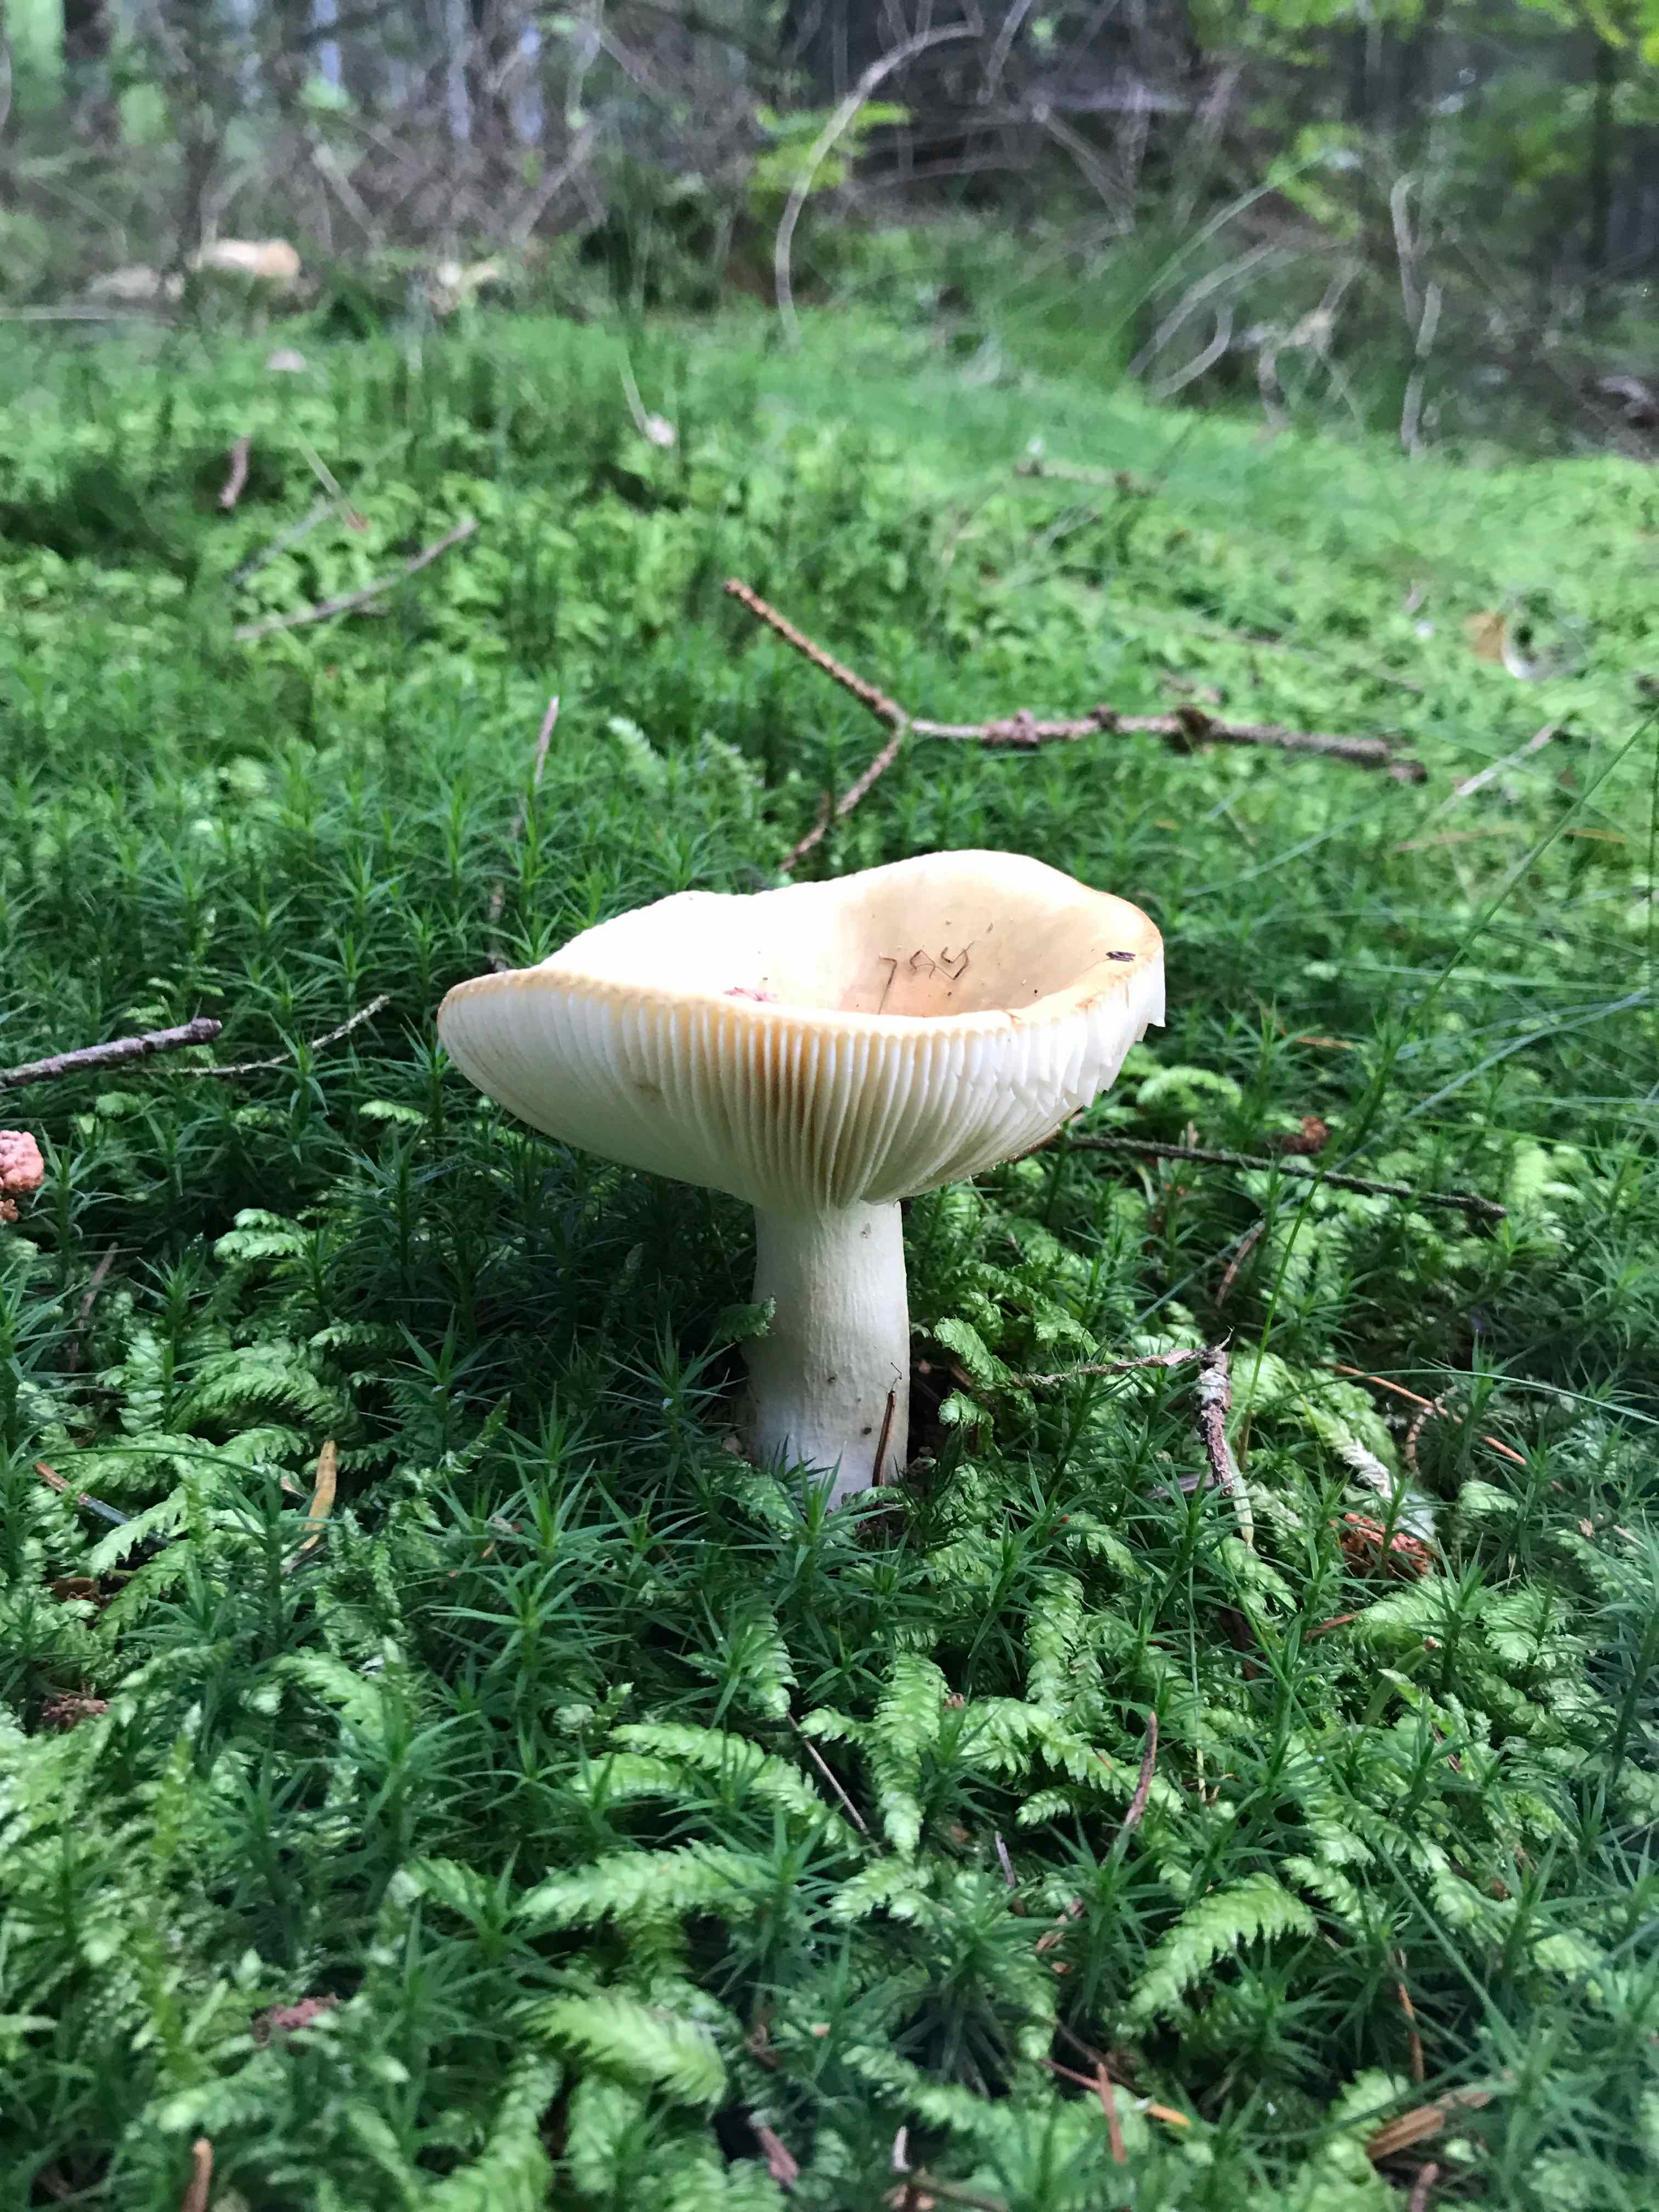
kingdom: Fungi
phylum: Basidiomycota
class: Agaricomycetes
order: Russulales
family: Russulaceae
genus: Russula
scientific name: Russula ochroleuca
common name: okkergul skørhat
